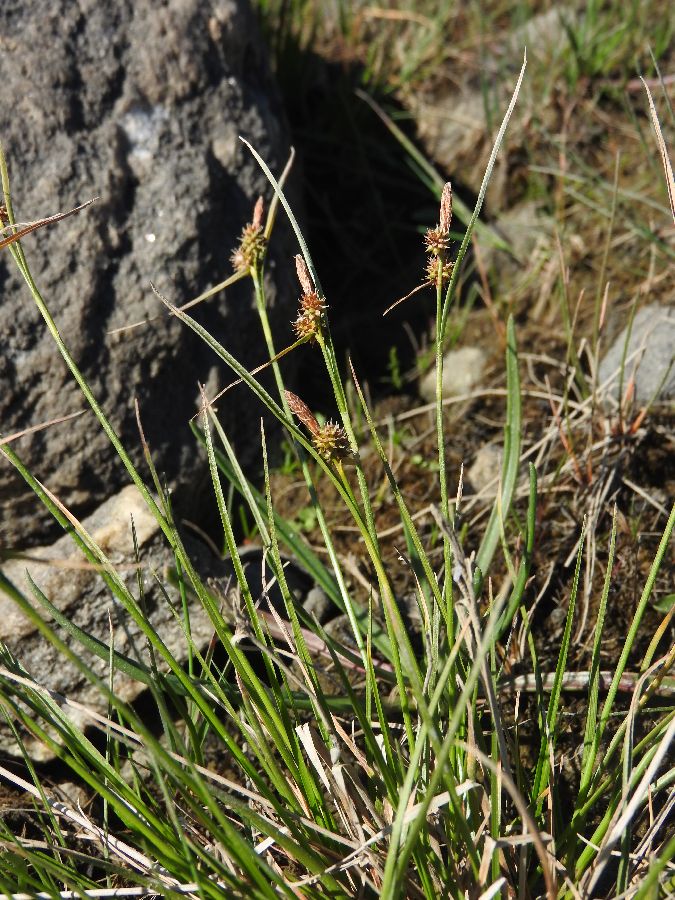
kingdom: Plantae
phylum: Tracheophyta
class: Liliopsida
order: Poales
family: Cyperaceae
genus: Carex
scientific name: Carex oederi
